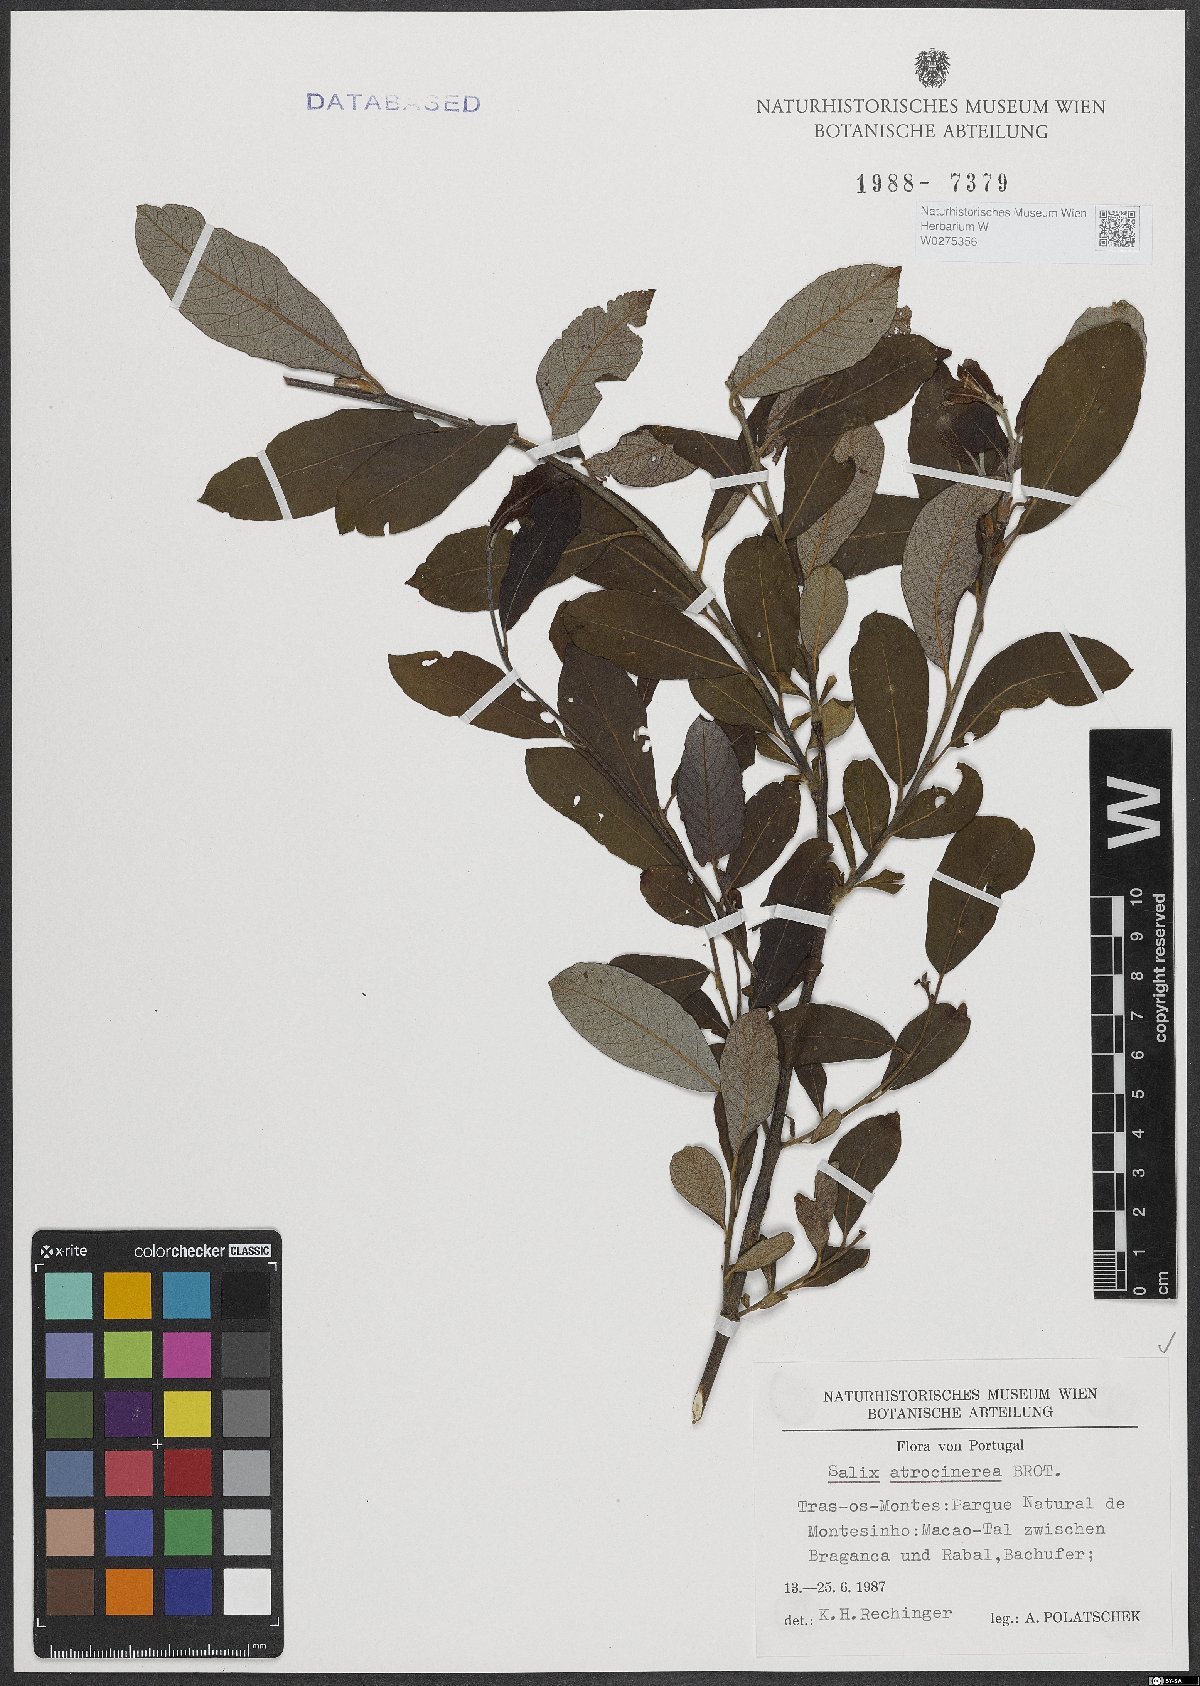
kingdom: Plantae
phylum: Tracheophyta
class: Magnoliopsida
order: Malpighiales
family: Salicaceae
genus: Salix
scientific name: Salix atrocinerea
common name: Rusty willow
